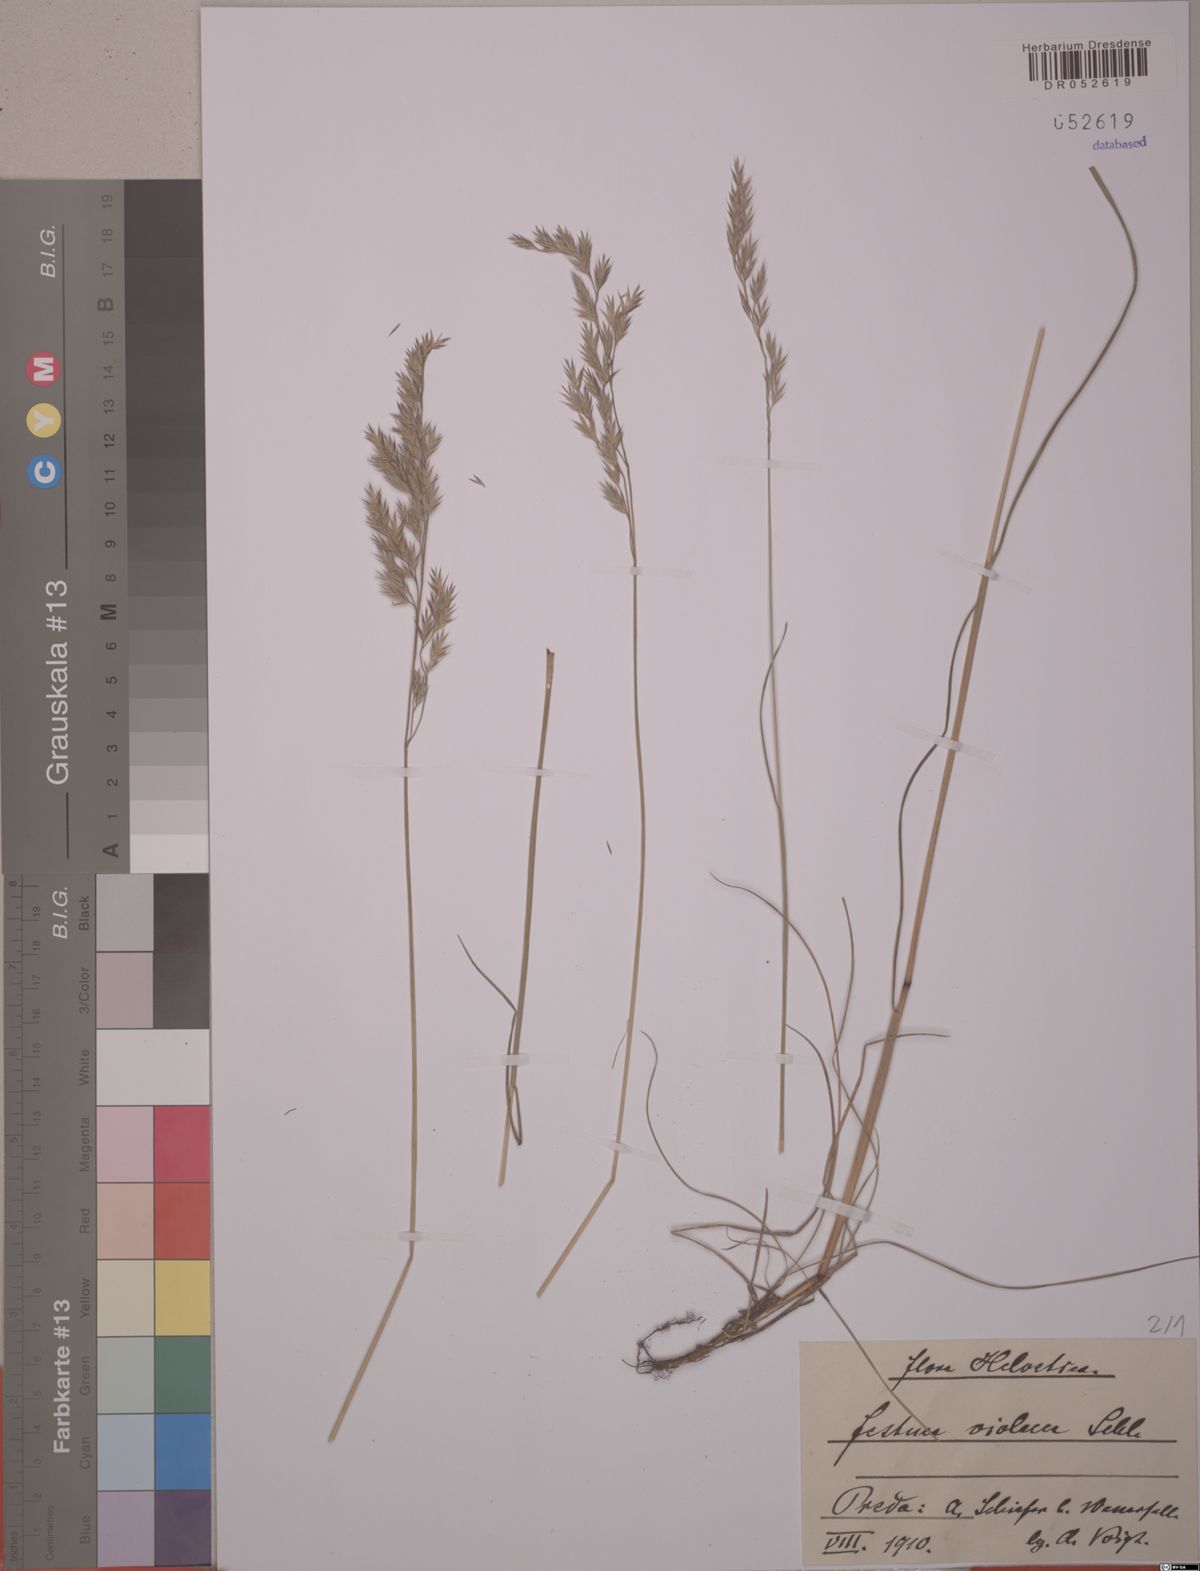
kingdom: Plantae
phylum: Tracheophyta
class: Liliopsida
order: Poales
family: Poaceae
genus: Festuca
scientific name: Festuca violacea
